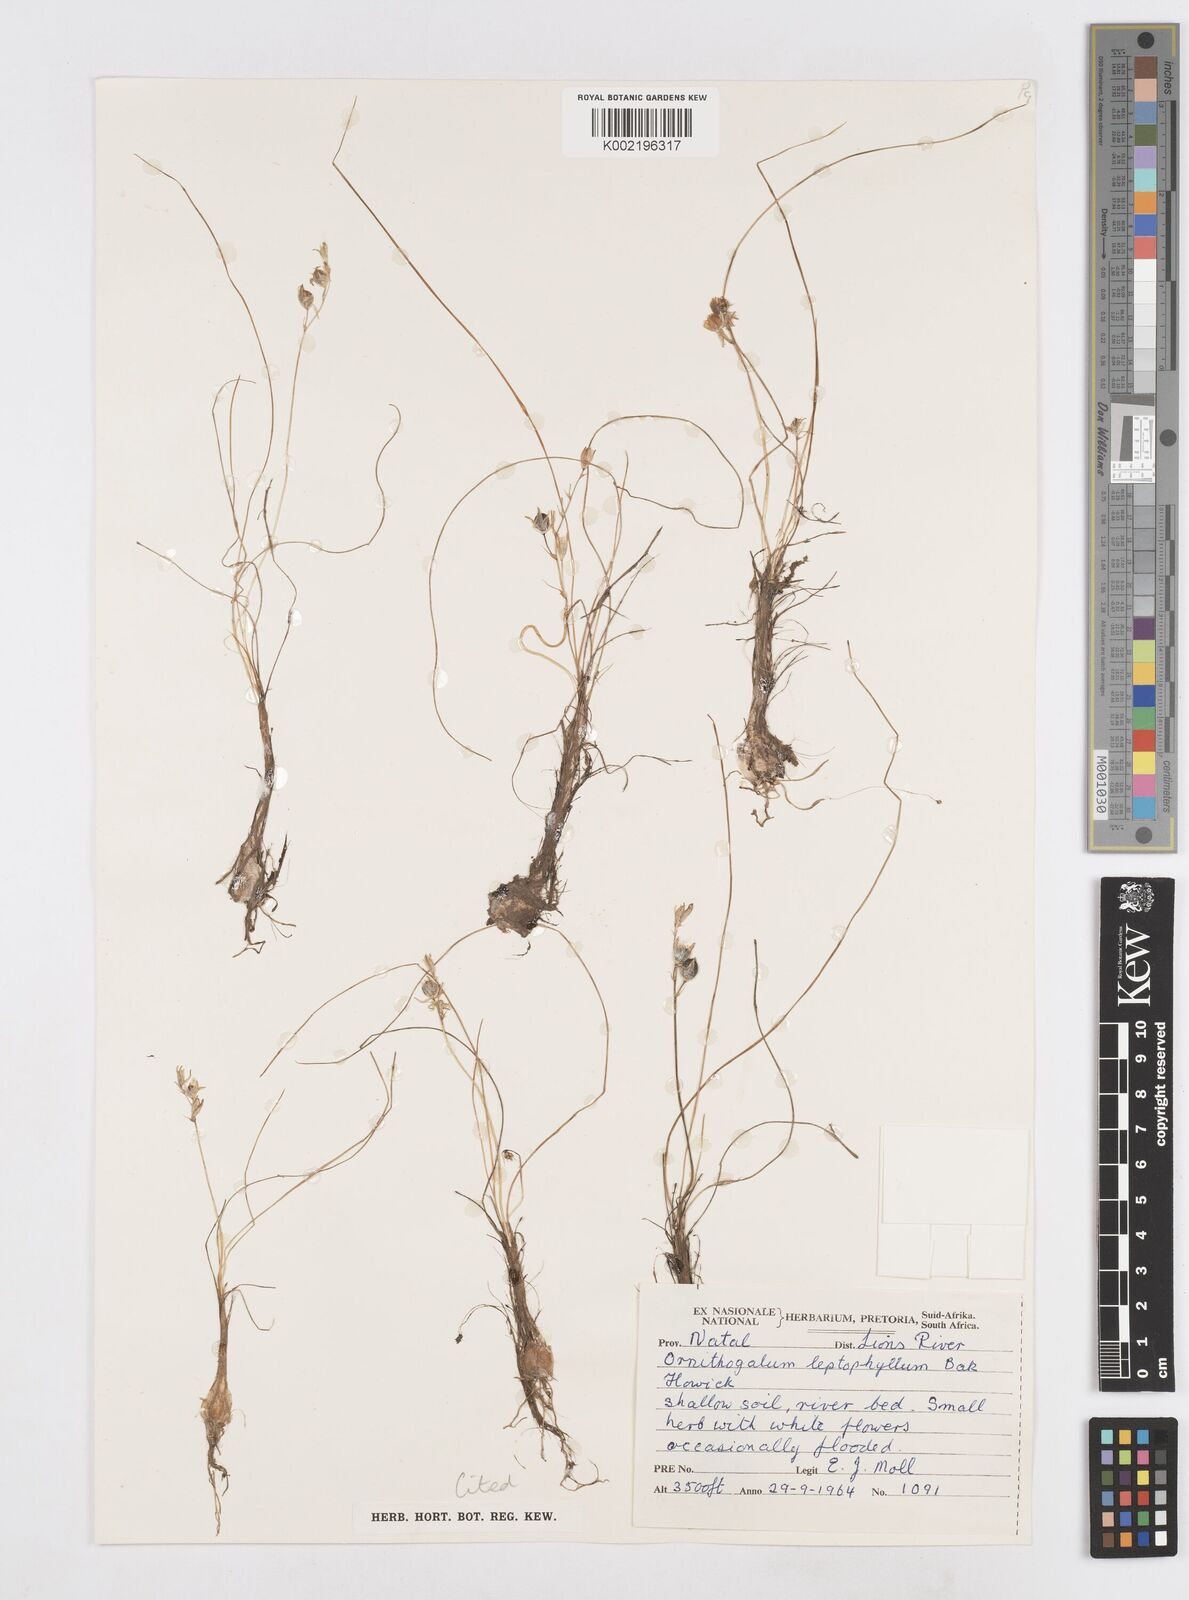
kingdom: Plantae
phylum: Tracheophyta
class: Liliopsida
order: Asparagales
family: Asparagaceae
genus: Ornithogalum
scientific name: Ornithogalum juncifolium
